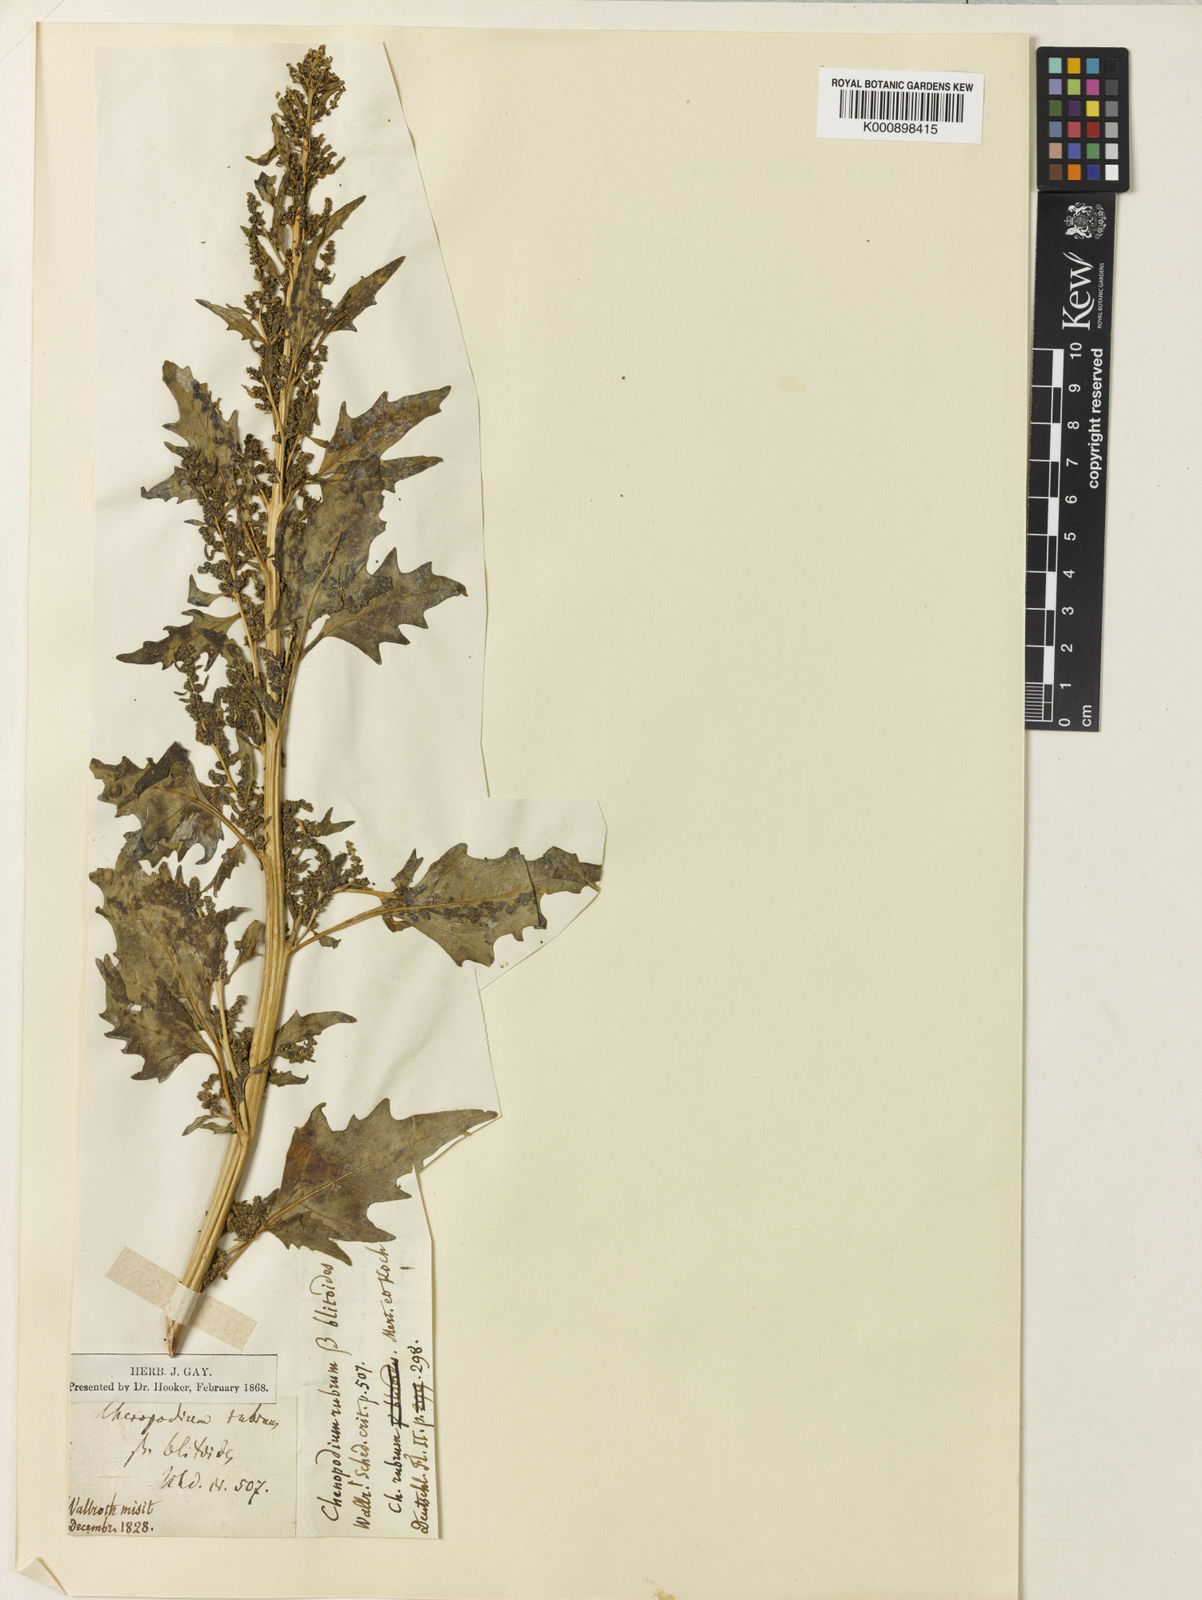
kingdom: Plantae
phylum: Tracheophyta
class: Magnoliopsida
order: Caryophyllales
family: Amaranthaceae
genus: Oxybasis
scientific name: Oxybasis rubra
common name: Red goosefoot
